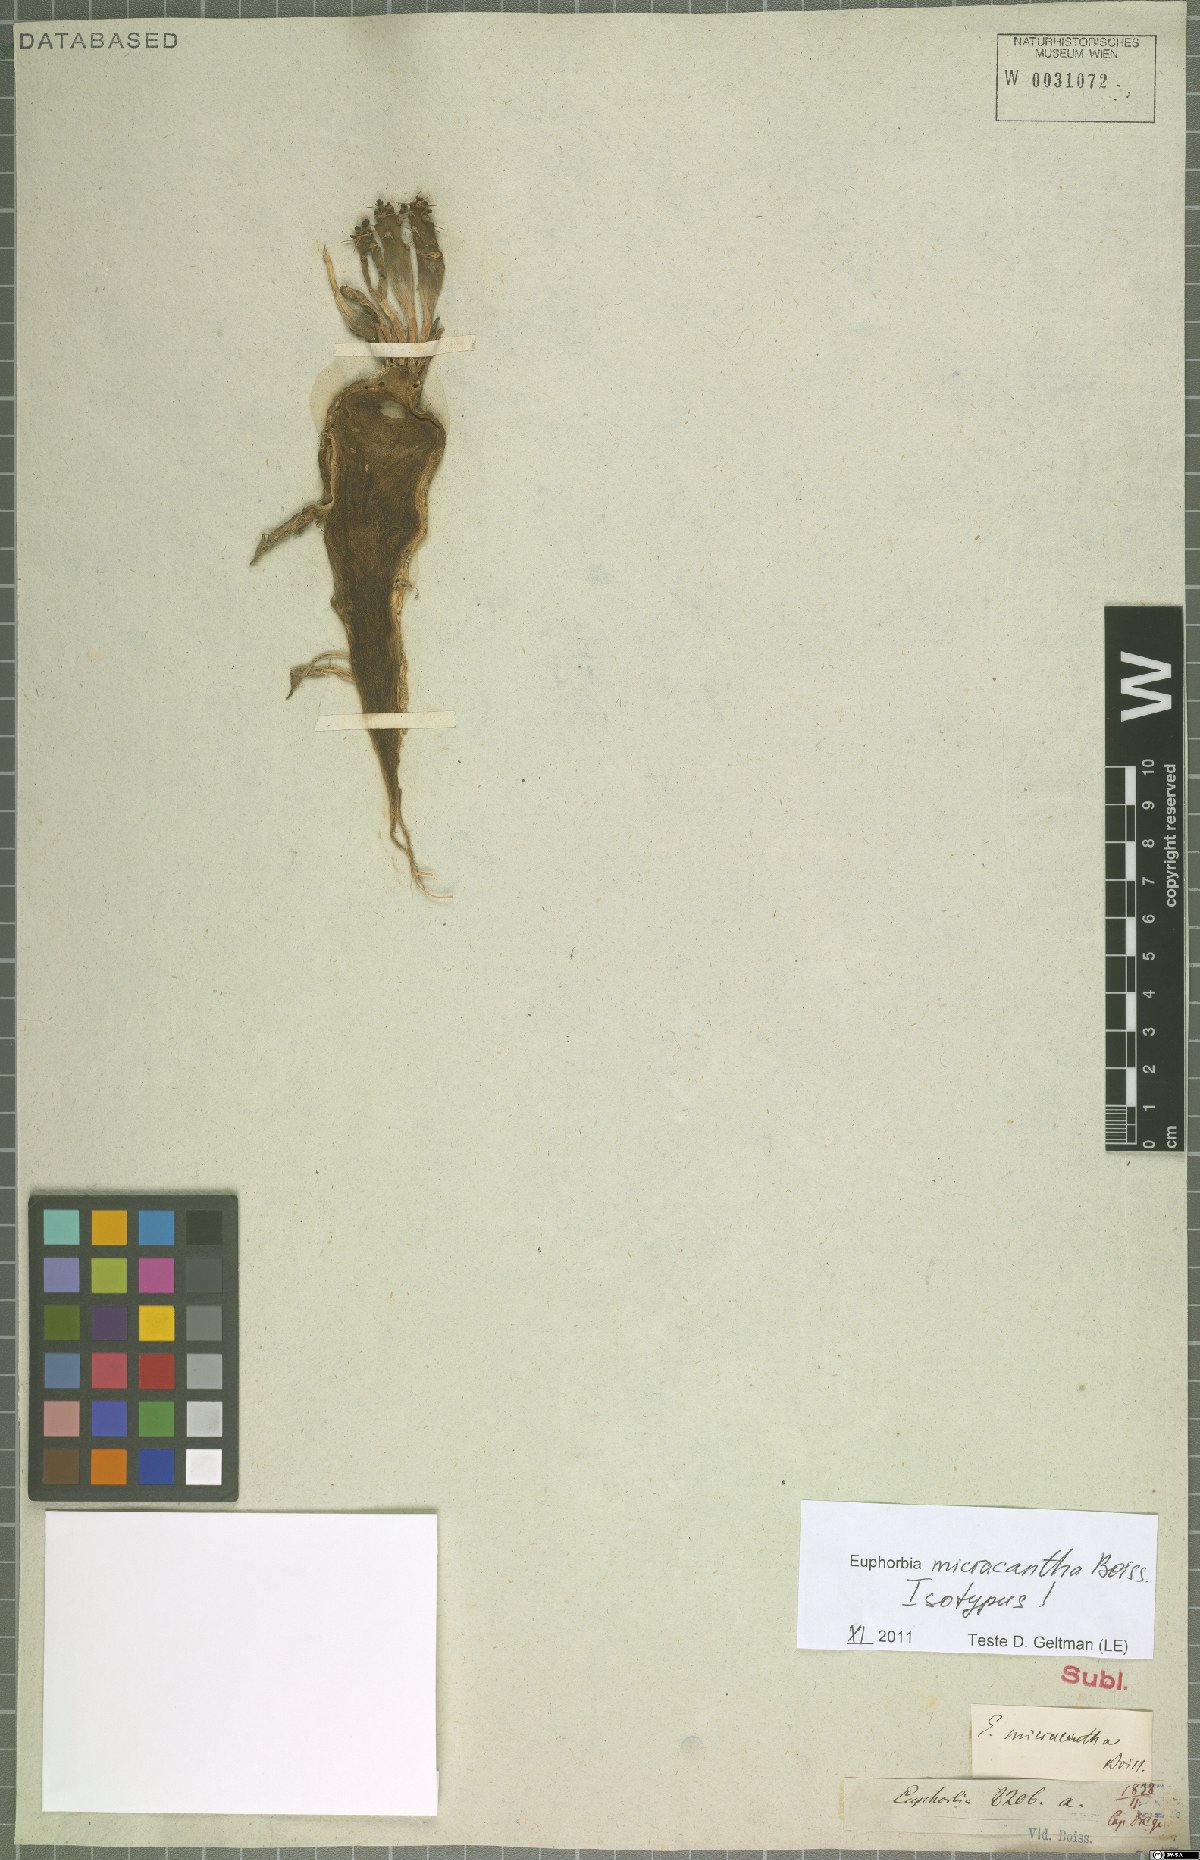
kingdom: Plantae
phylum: Tracheophyta
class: Magnoliopsida
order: Malpighiales
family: Euphorbiaceae
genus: Euphorbia
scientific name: Euphorbia micracantha
